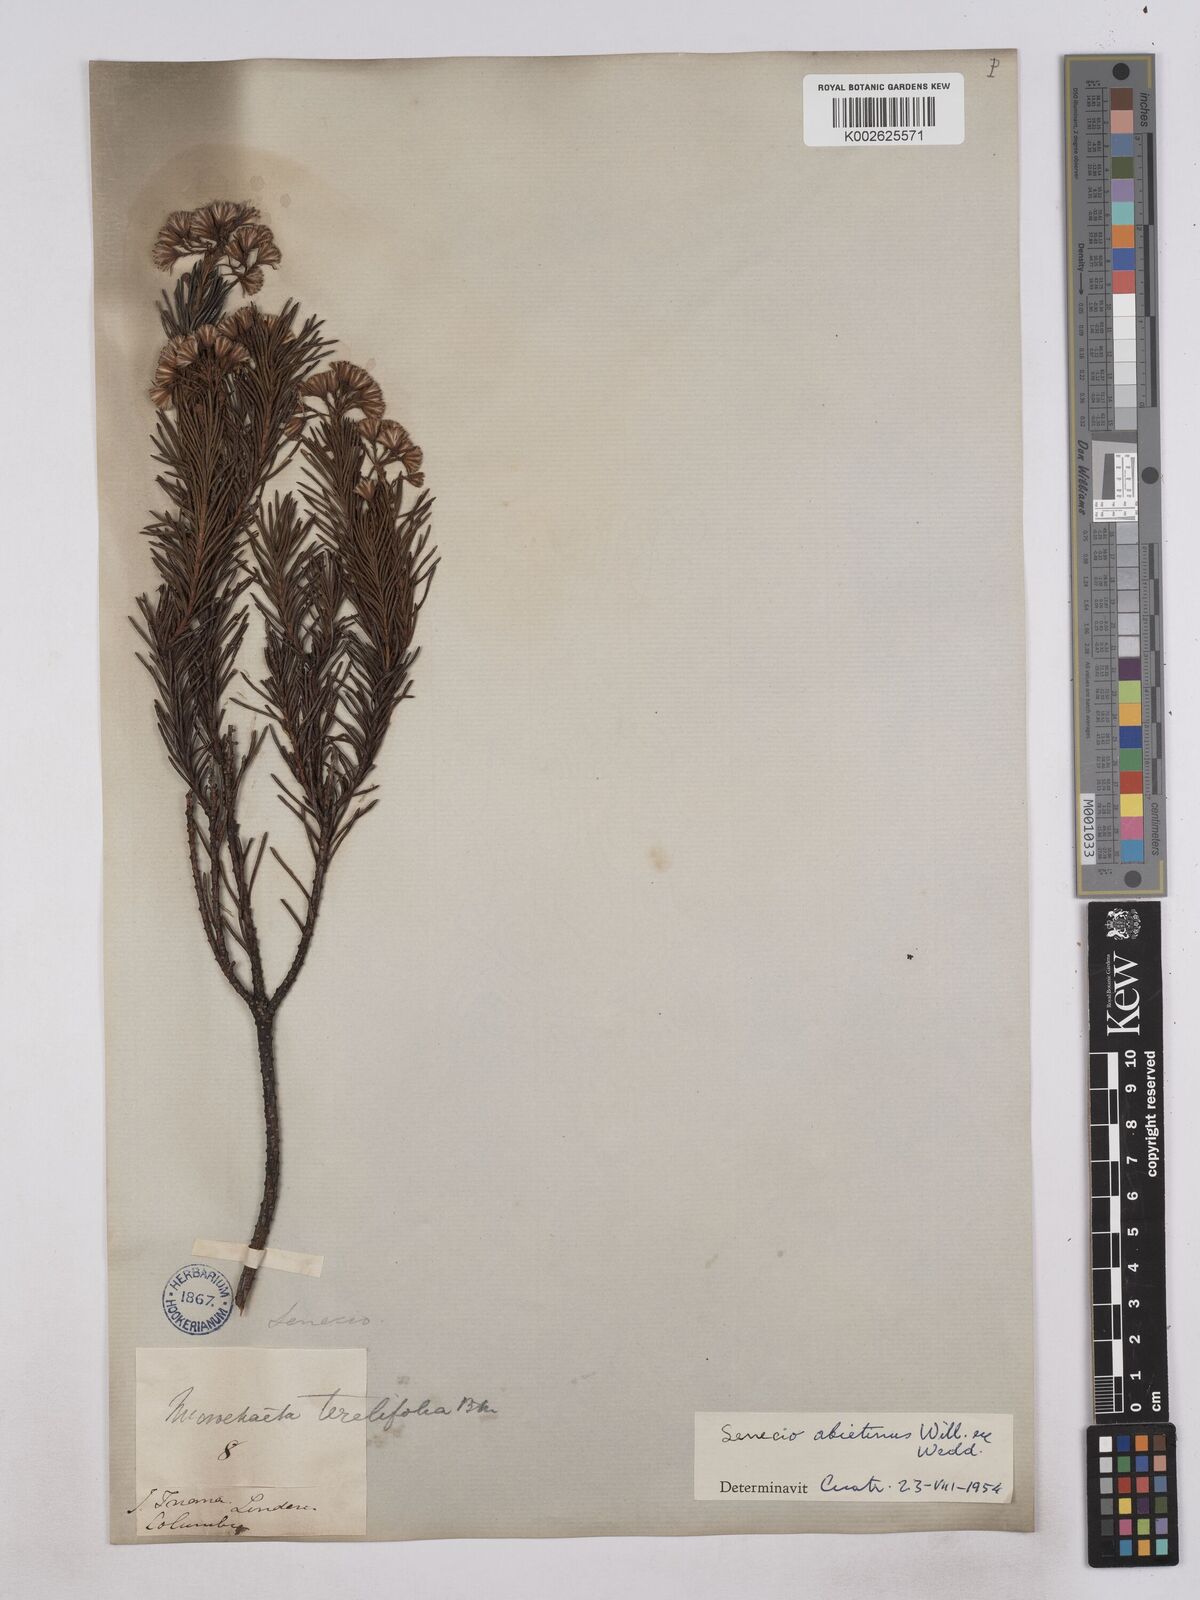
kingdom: Plantae
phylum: Tracheophyta
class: Magnoliopsida
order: Asterales
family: Asteraceae
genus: Monticalia
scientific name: Monticalia abietina
